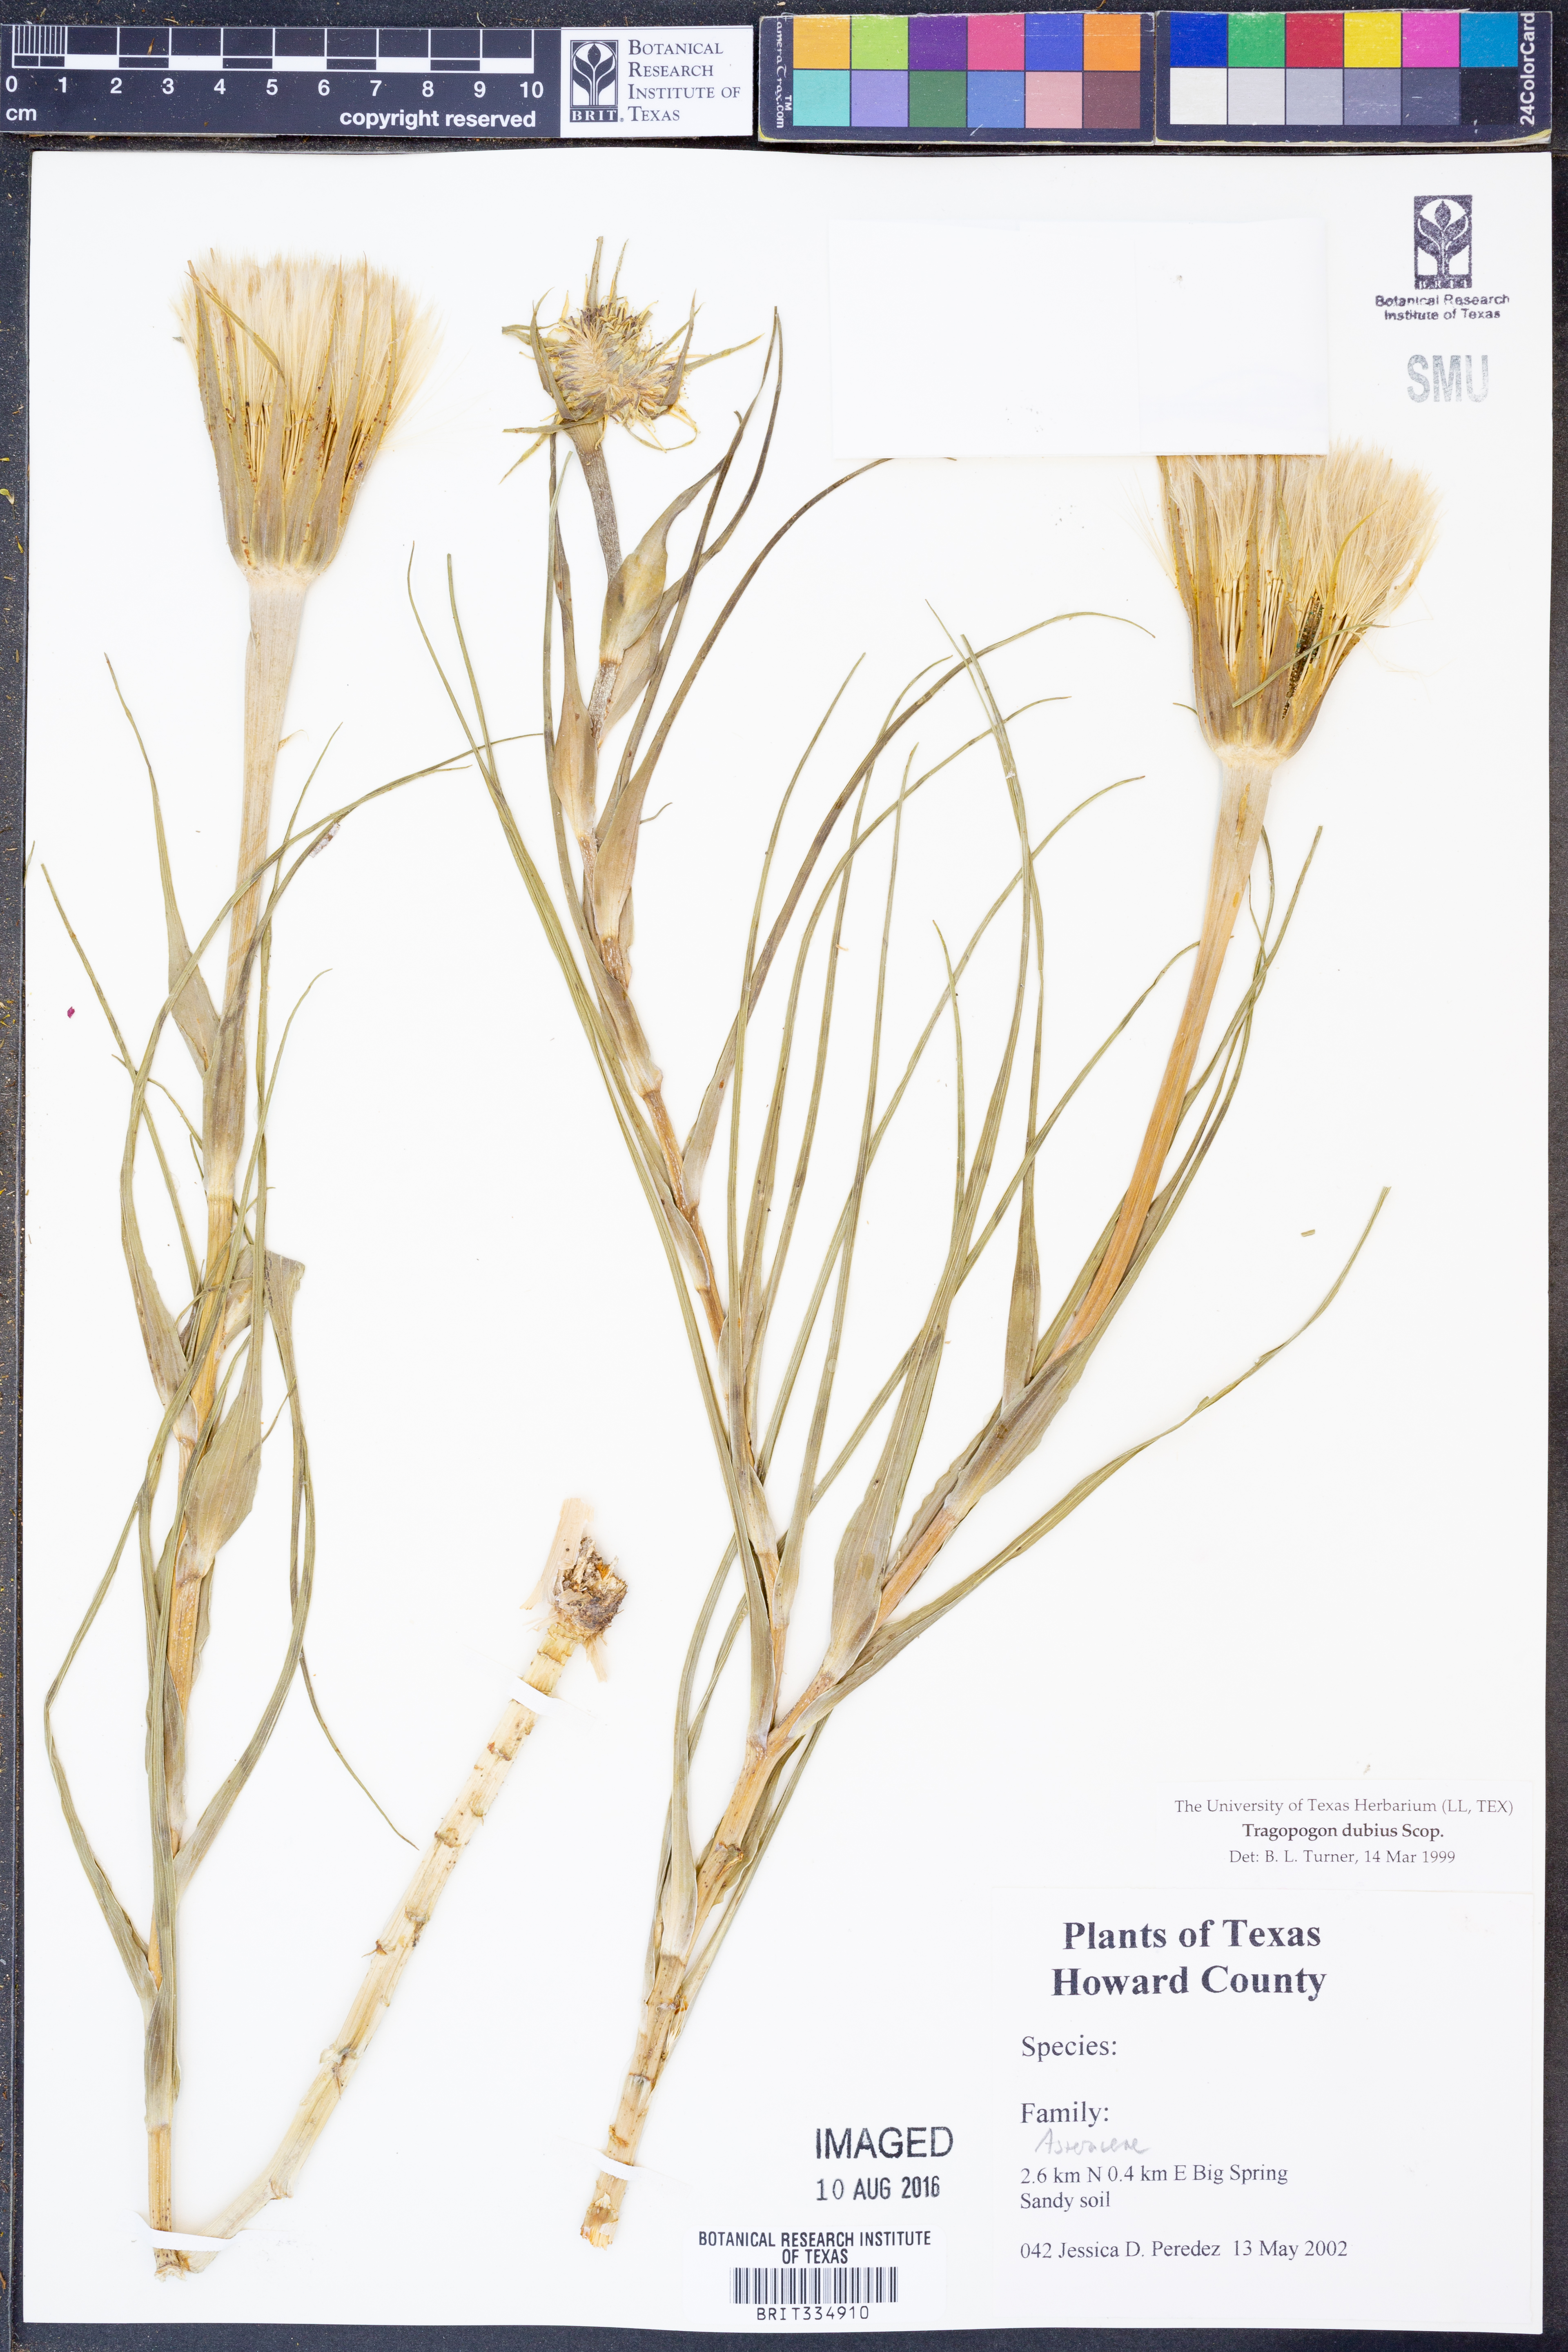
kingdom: Plantae
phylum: Tracheophyta
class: Magnoliopsida
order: Asterales
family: Asteraceae
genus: Tragopogon
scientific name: Tragopogon dubius
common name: Yellow salsify
